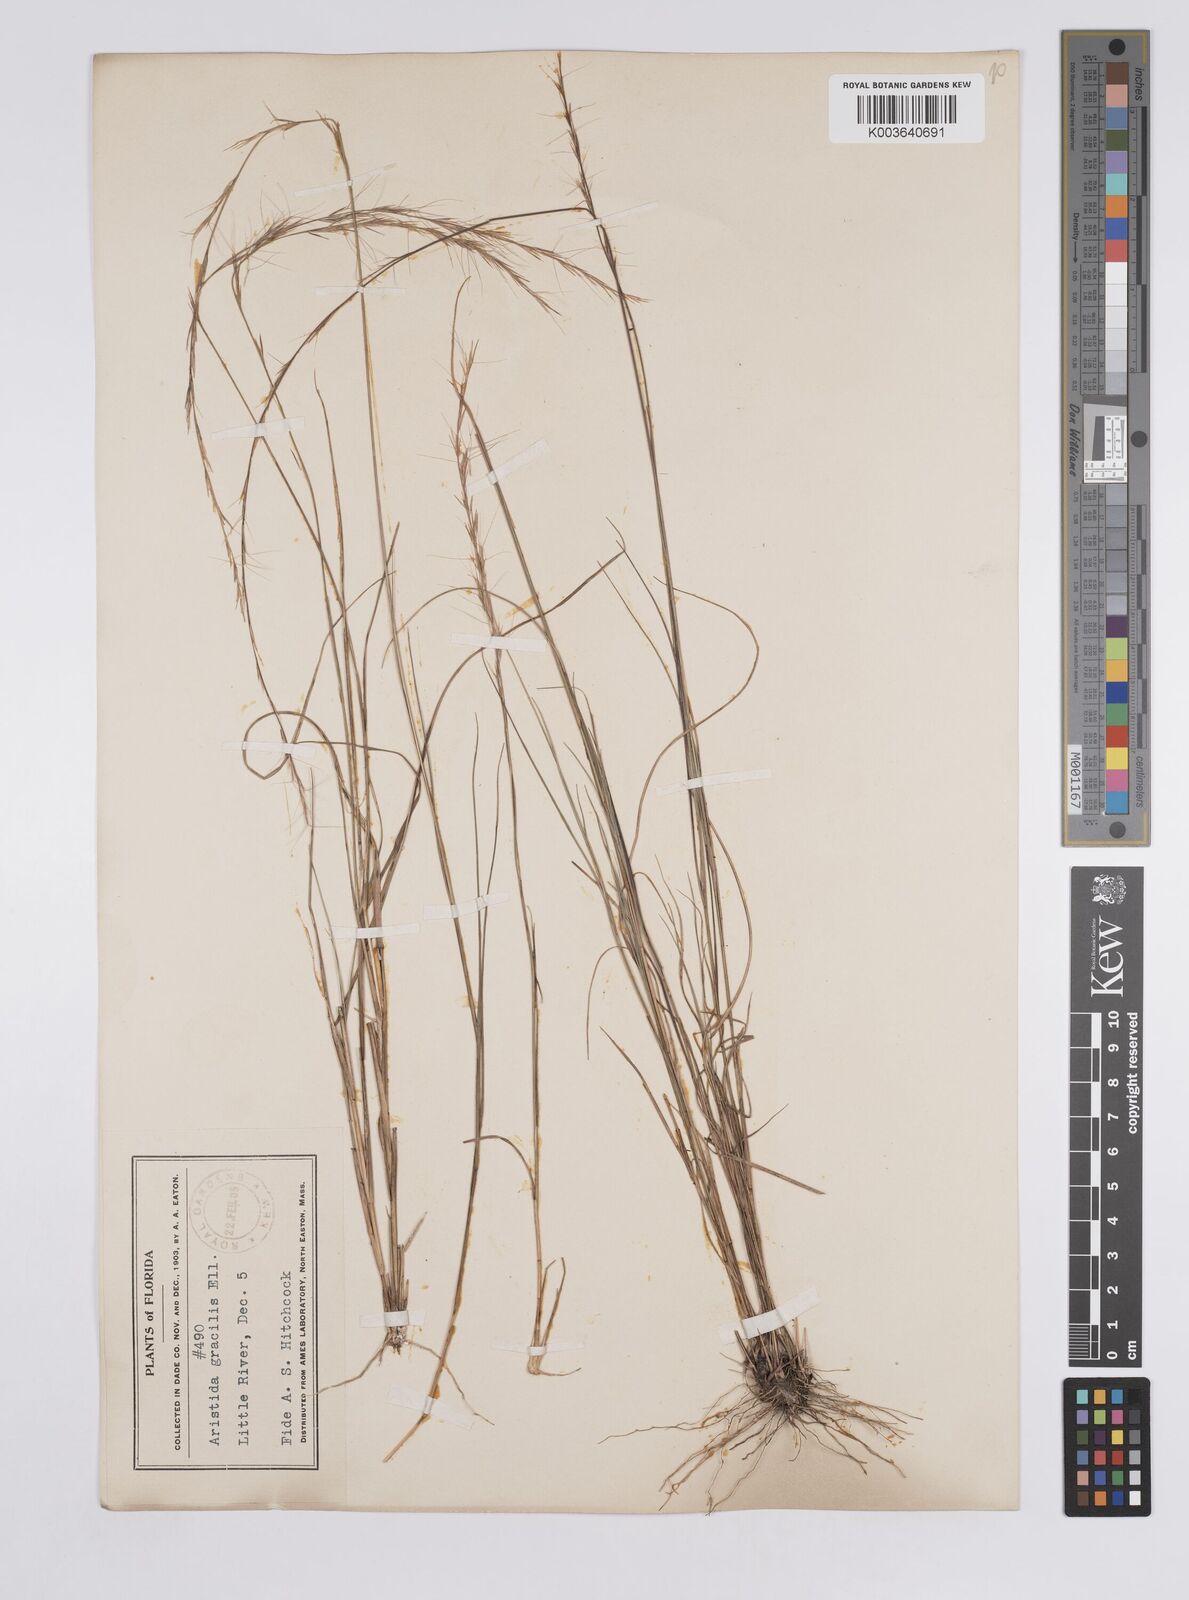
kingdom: Plantae
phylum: Tracheophyta
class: Liliopsida
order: Poales
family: Poaceae
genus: Aristida
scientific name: Aristida longespica
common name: Long-spiked triple-awned grass
